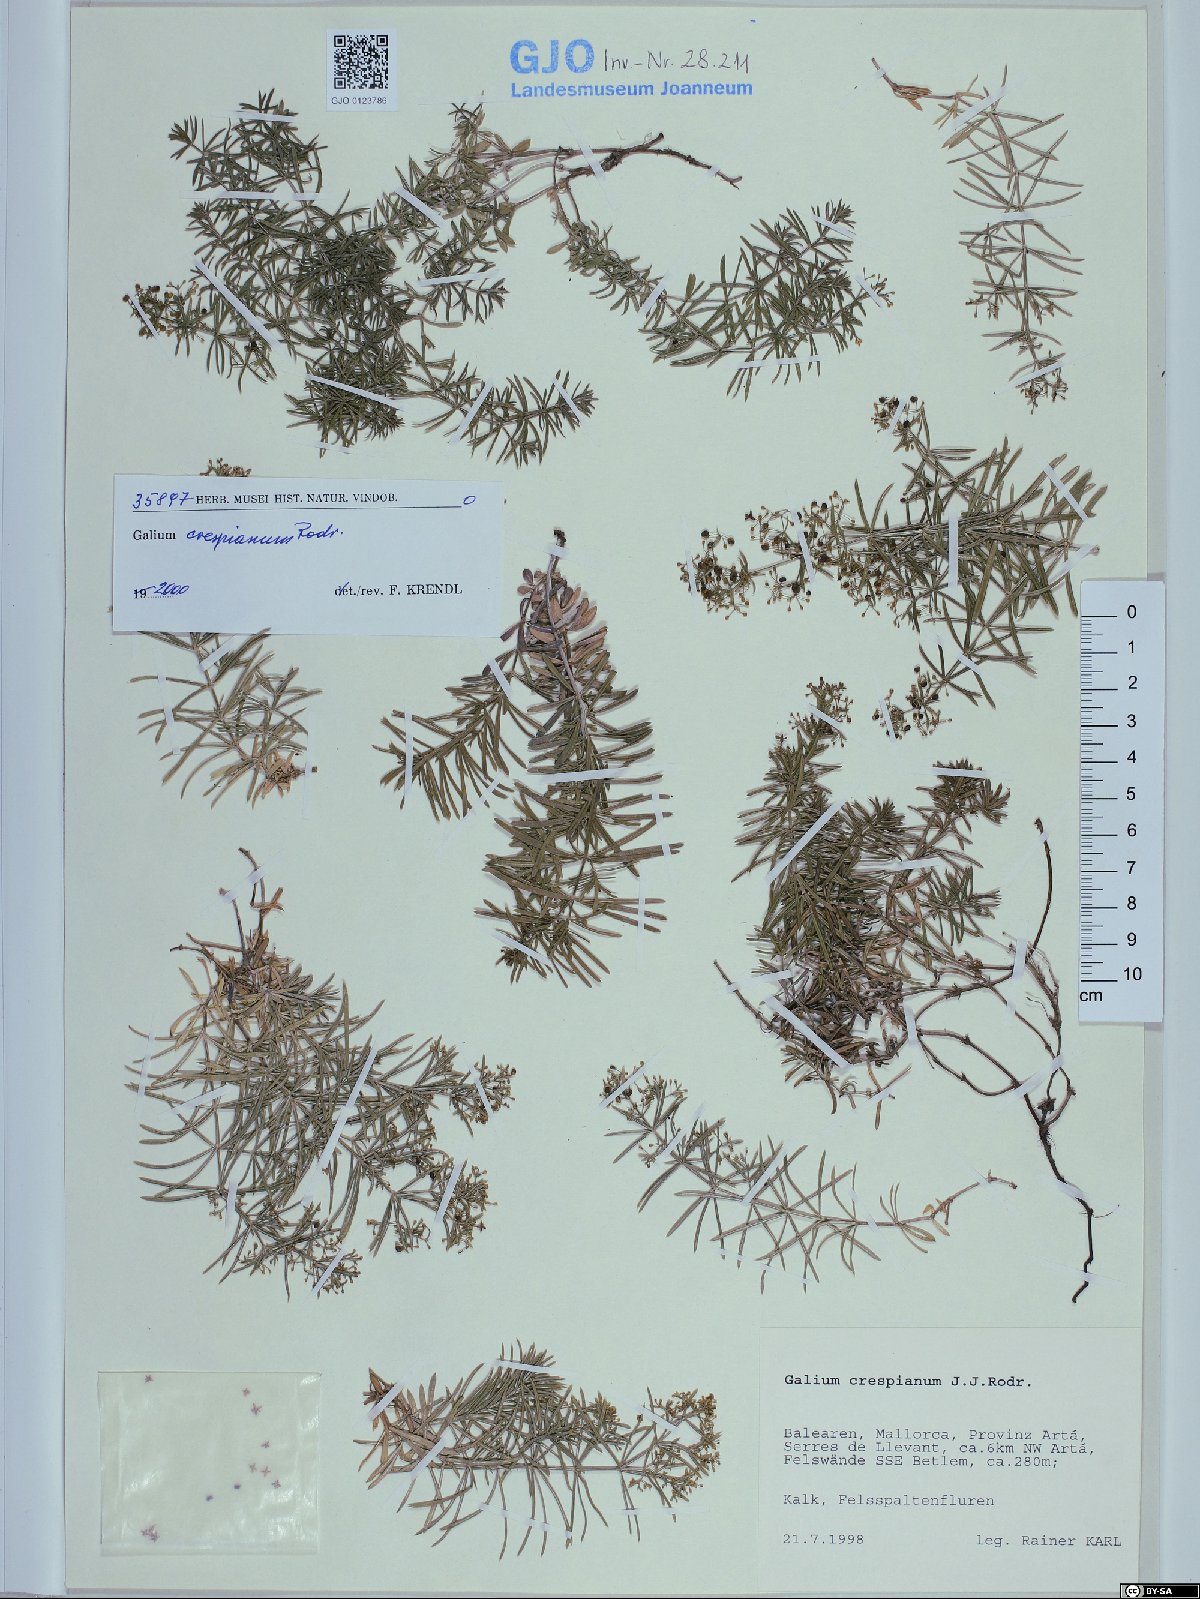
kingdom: Plantae
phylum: Tracheophyta
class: Magnoliopsida
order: Gentianales
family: Rubiaceae
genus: Galium
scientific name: Galium crespianum
